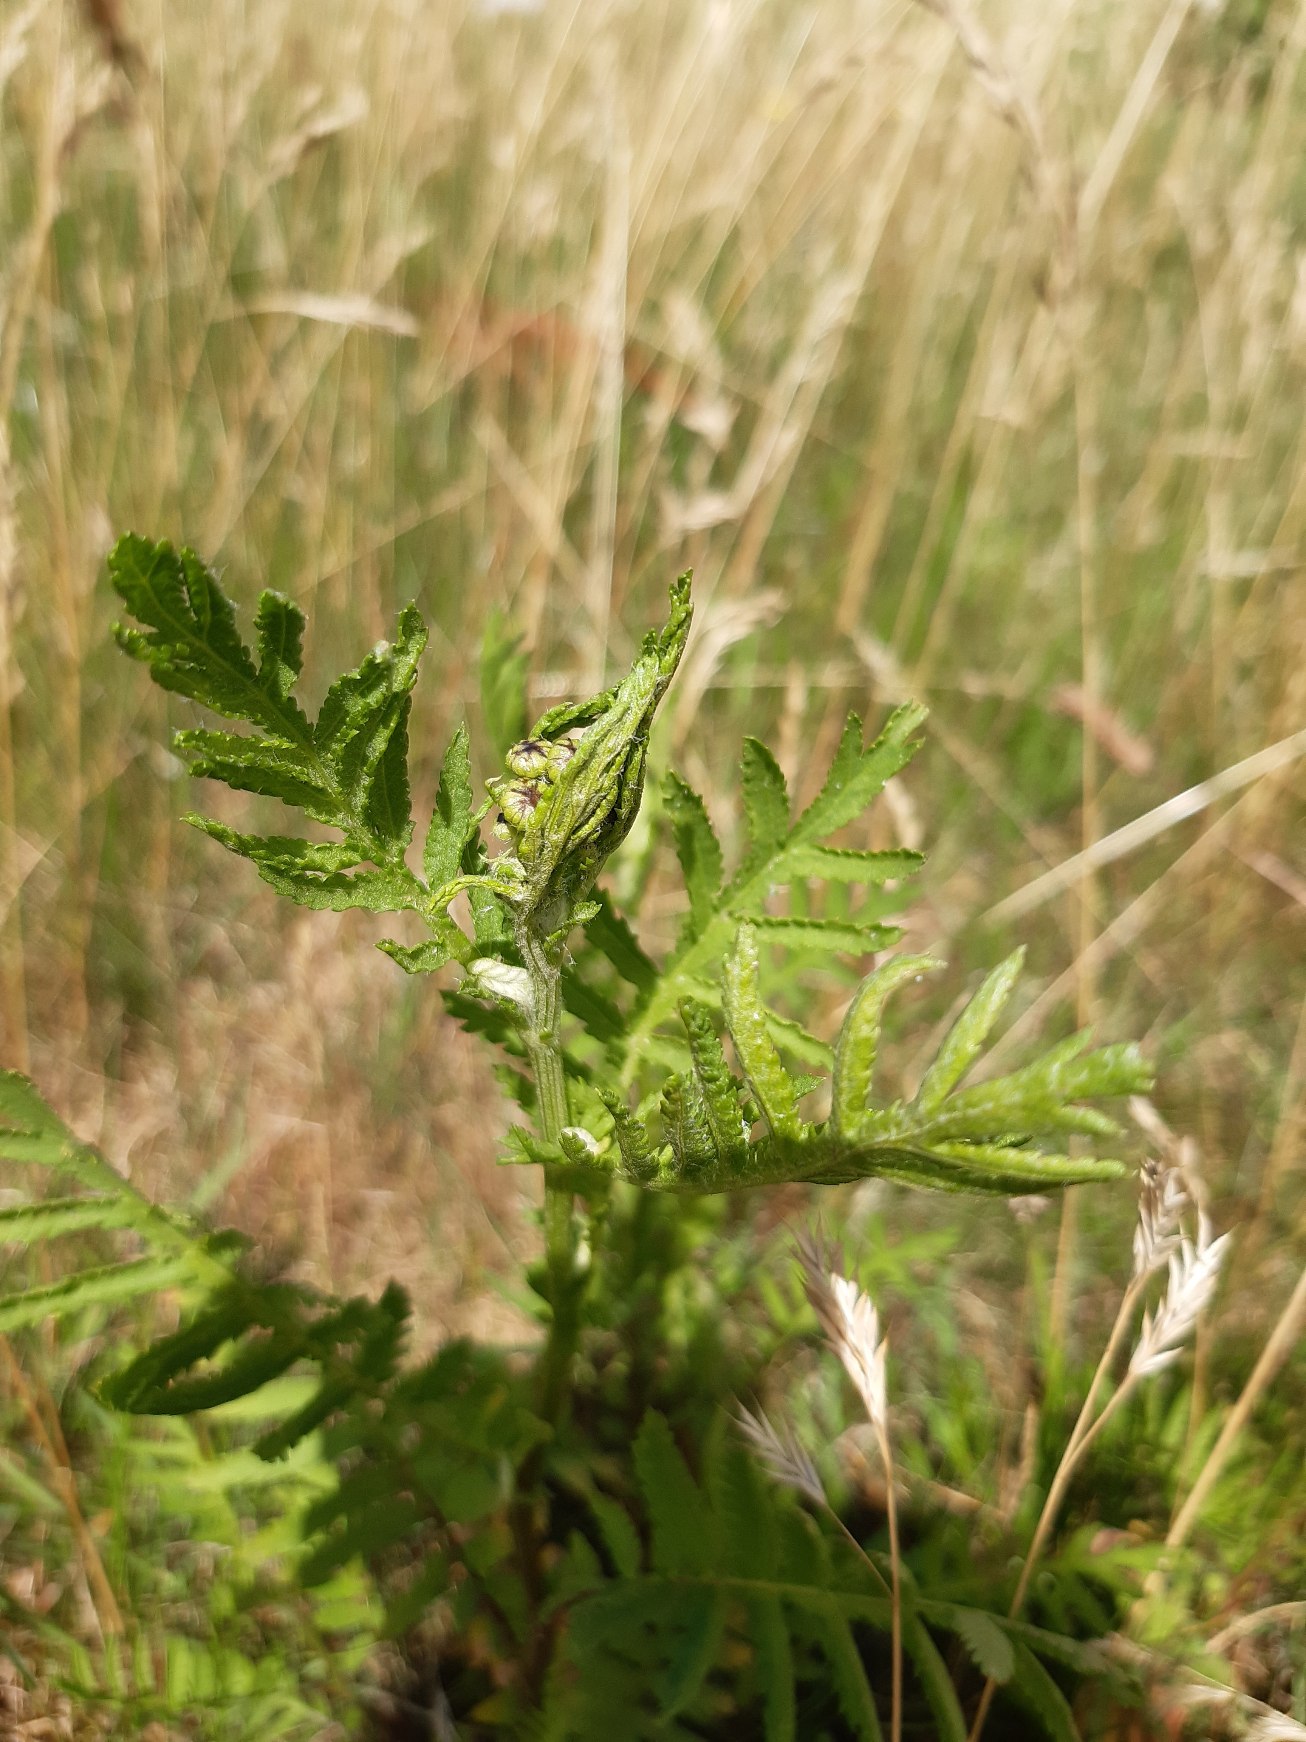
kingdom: Plantae
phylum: Tracheophyta
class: Magnoliopsida
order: Asterales
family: Asteraceae
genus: Tanacetum
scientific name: Tanacetum vulgare
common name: Rejnfan
